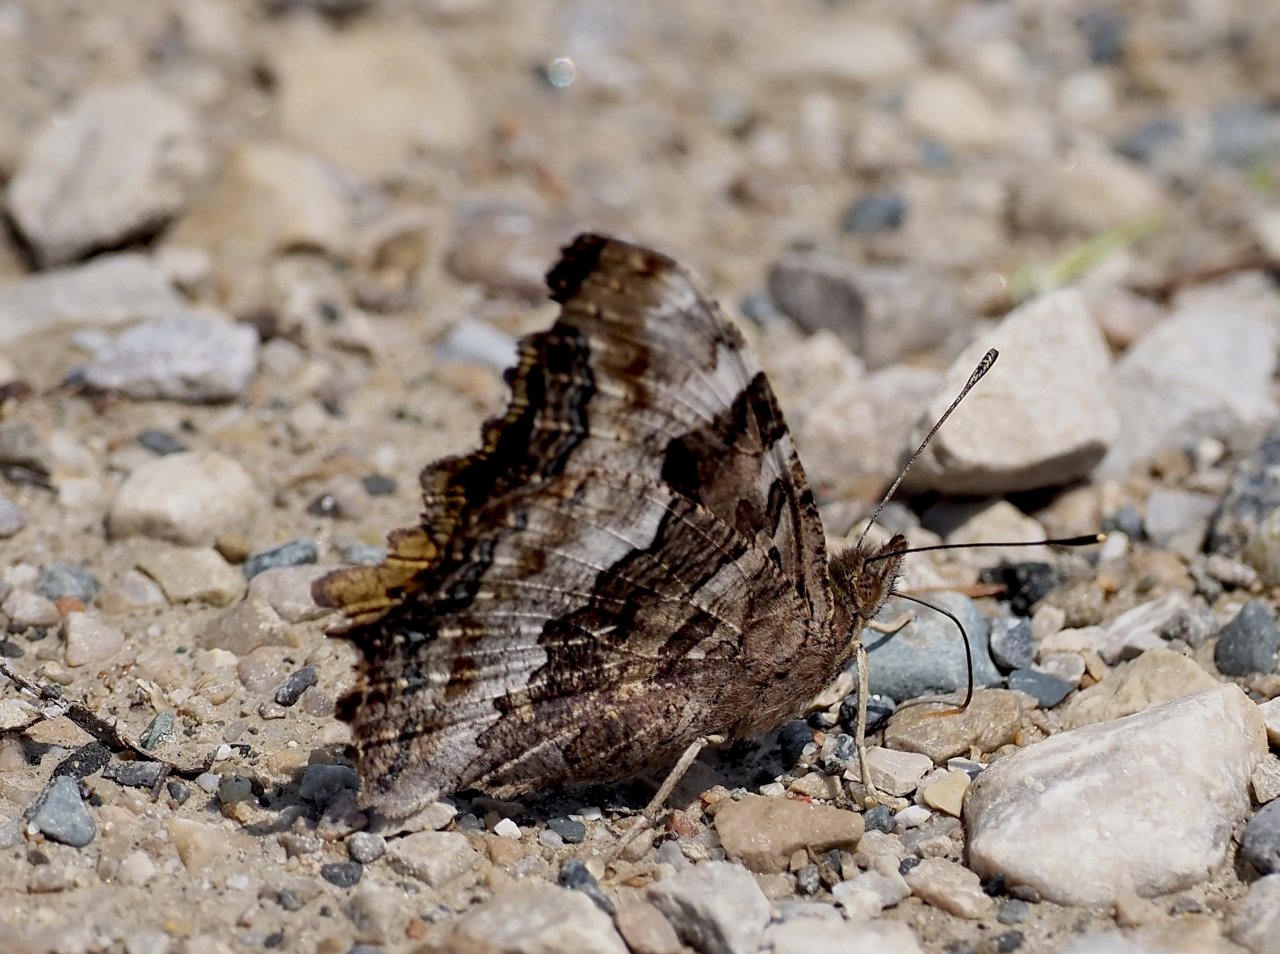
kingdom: Animalia
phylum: Arthropoda
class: Insecta
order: Lepidoptera
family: Nymphalidae
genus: Polygonia
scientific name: Polygonia vaualbum
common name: Compton Tortoiseshell
